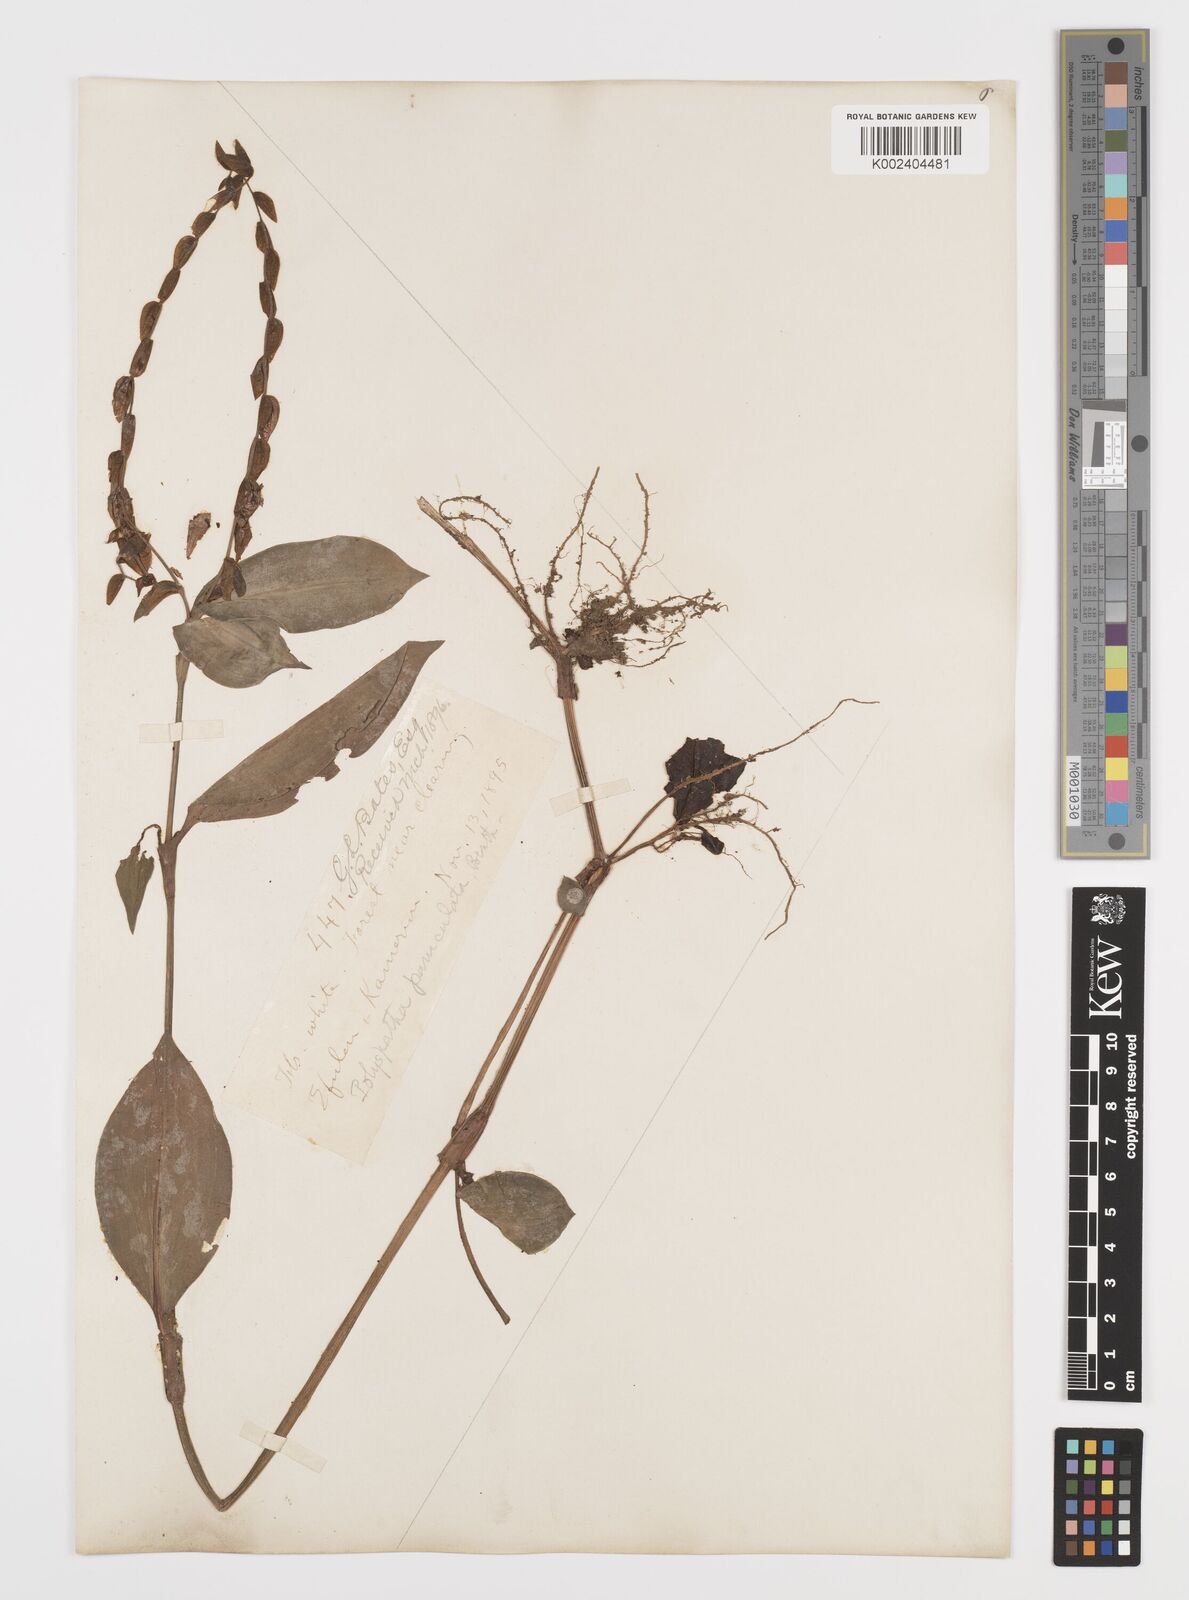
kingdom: Plantae
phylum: Tracheophyta
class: Liliopsida
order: Commelinales
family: Commelinaceae
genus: Polyspatha
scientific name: Polyspatha paniculata
